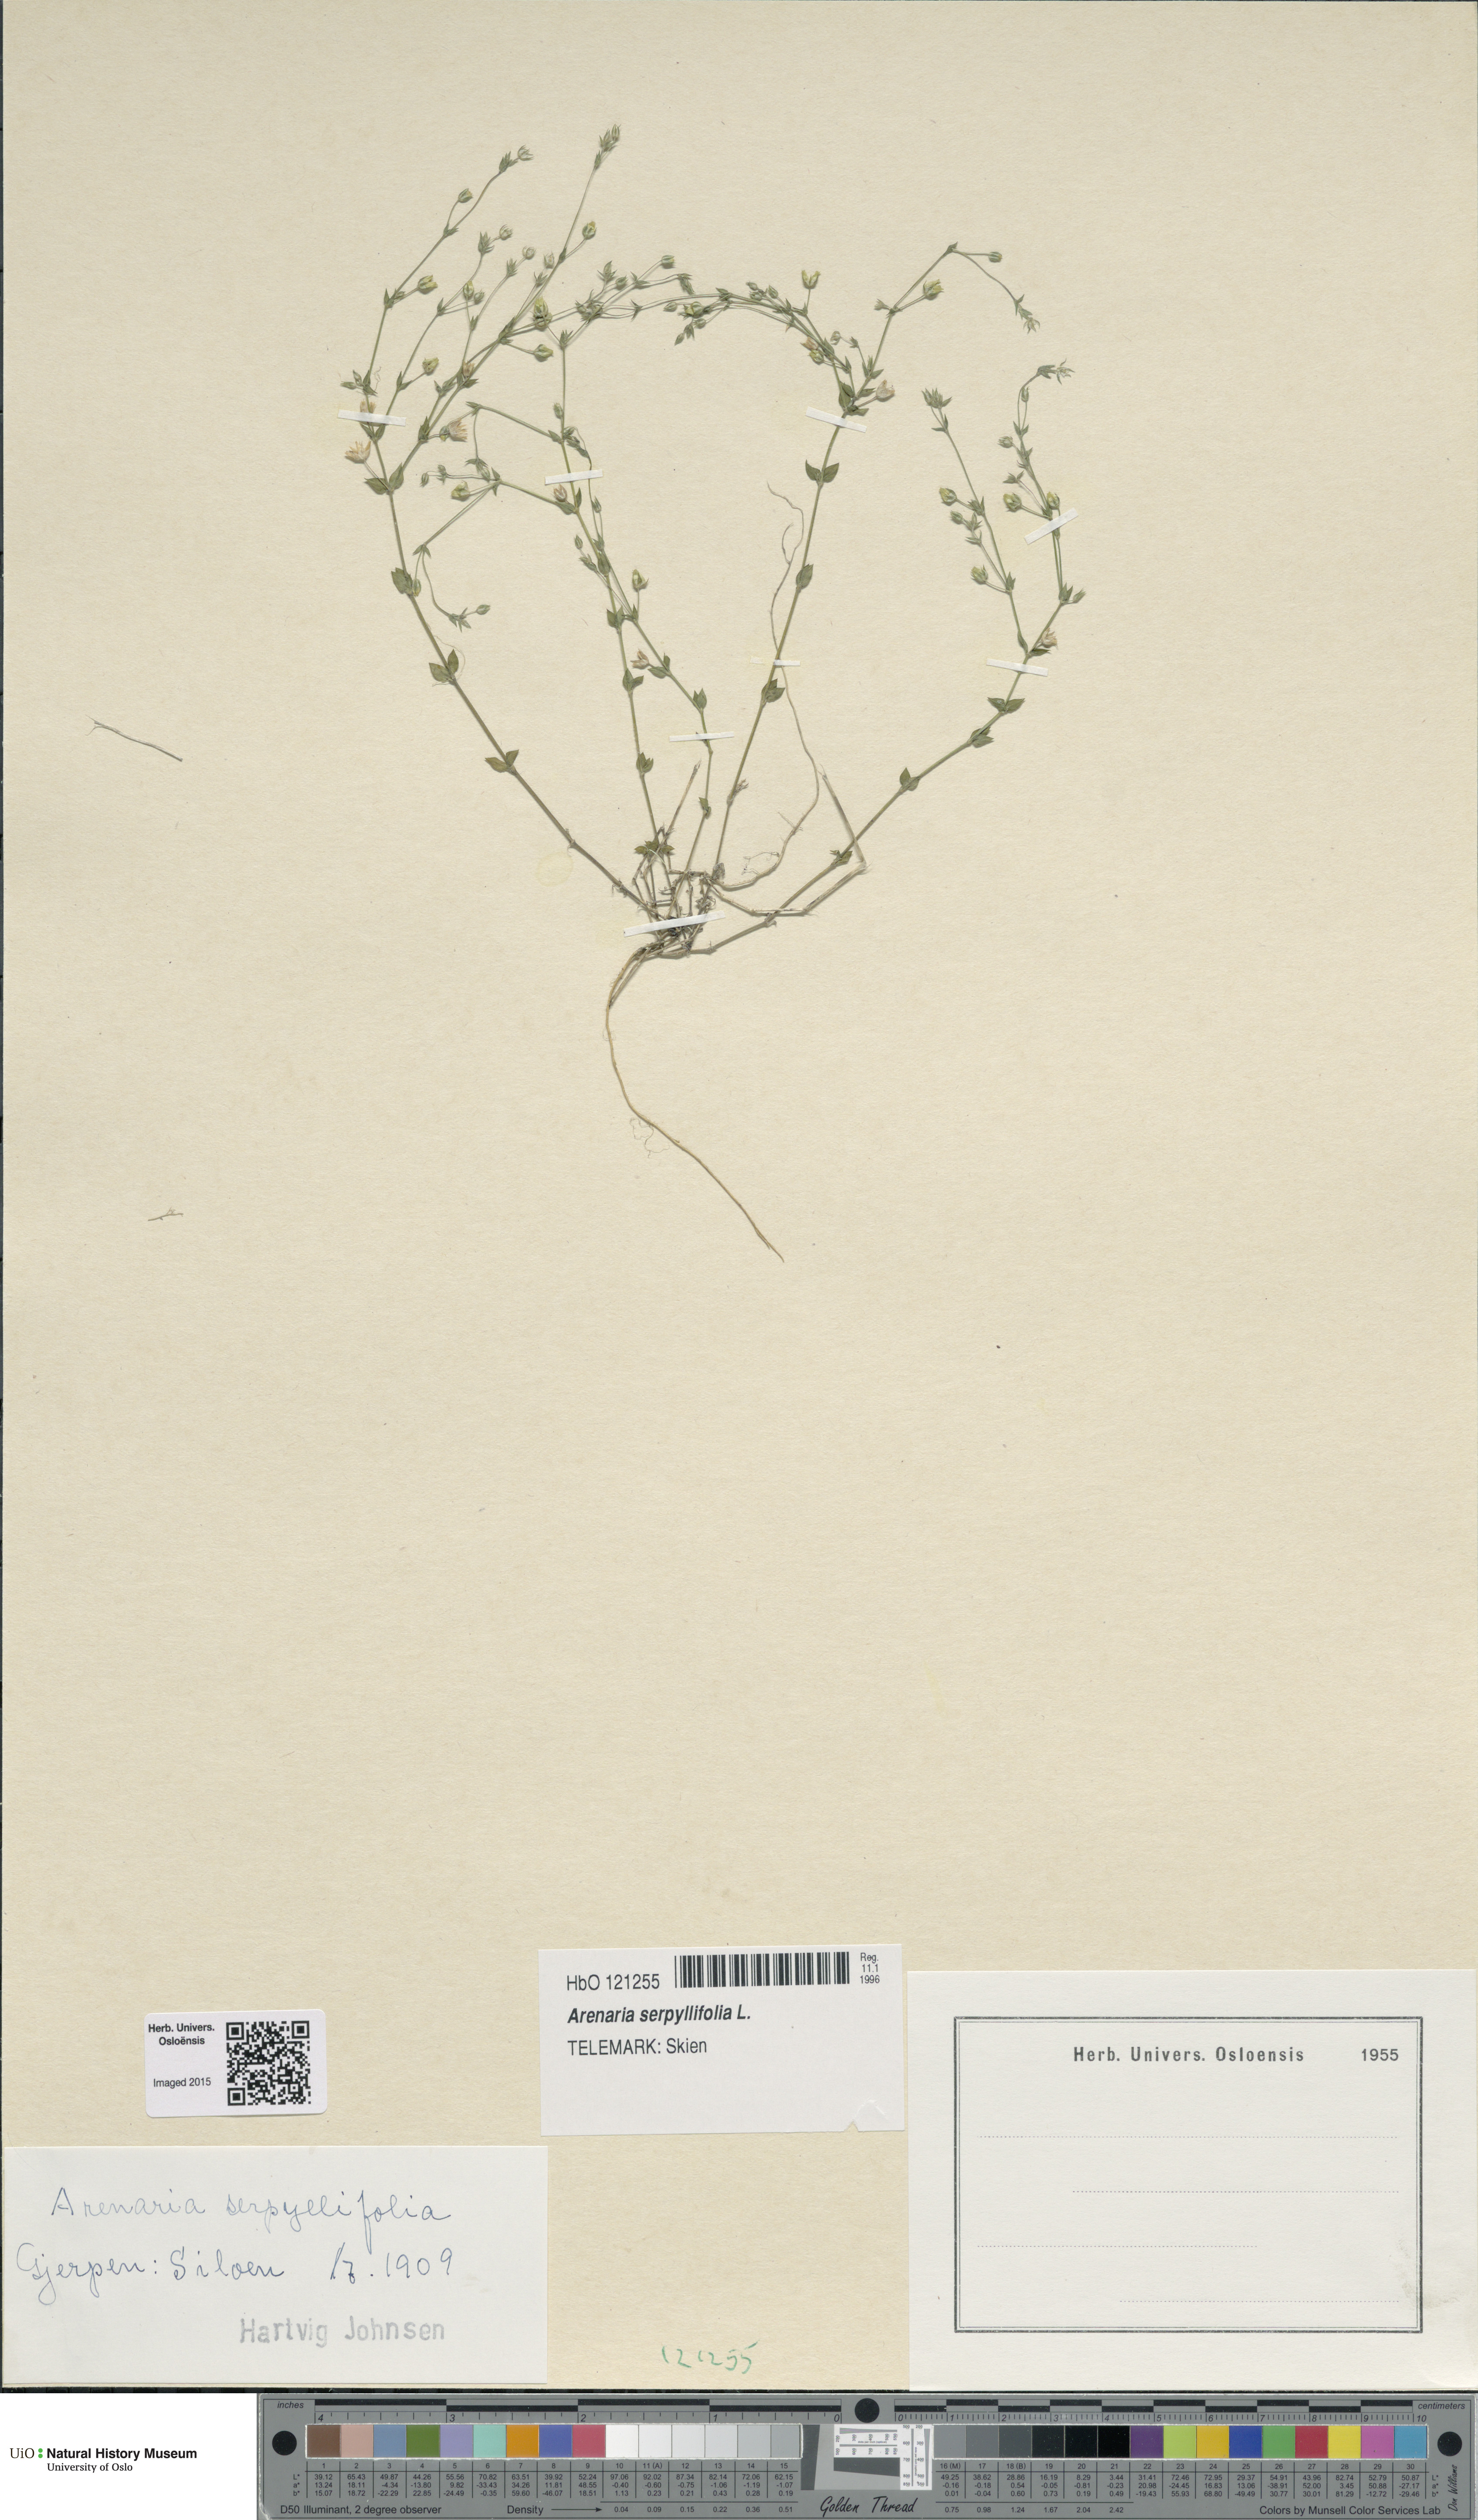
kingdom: Plantae
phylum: Tracheophyta
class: Magnoliopsida
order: Caryophyllales
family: Caryophyllaceae
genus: Arenaria
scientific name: Arenaria serpyllifolia
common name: Thyme-leaved sandwort
